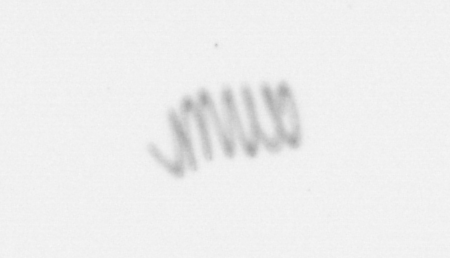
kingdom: Chromista
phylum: Ochrophyta
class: Bacillariophyceae
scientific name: Bacillariophyceae
